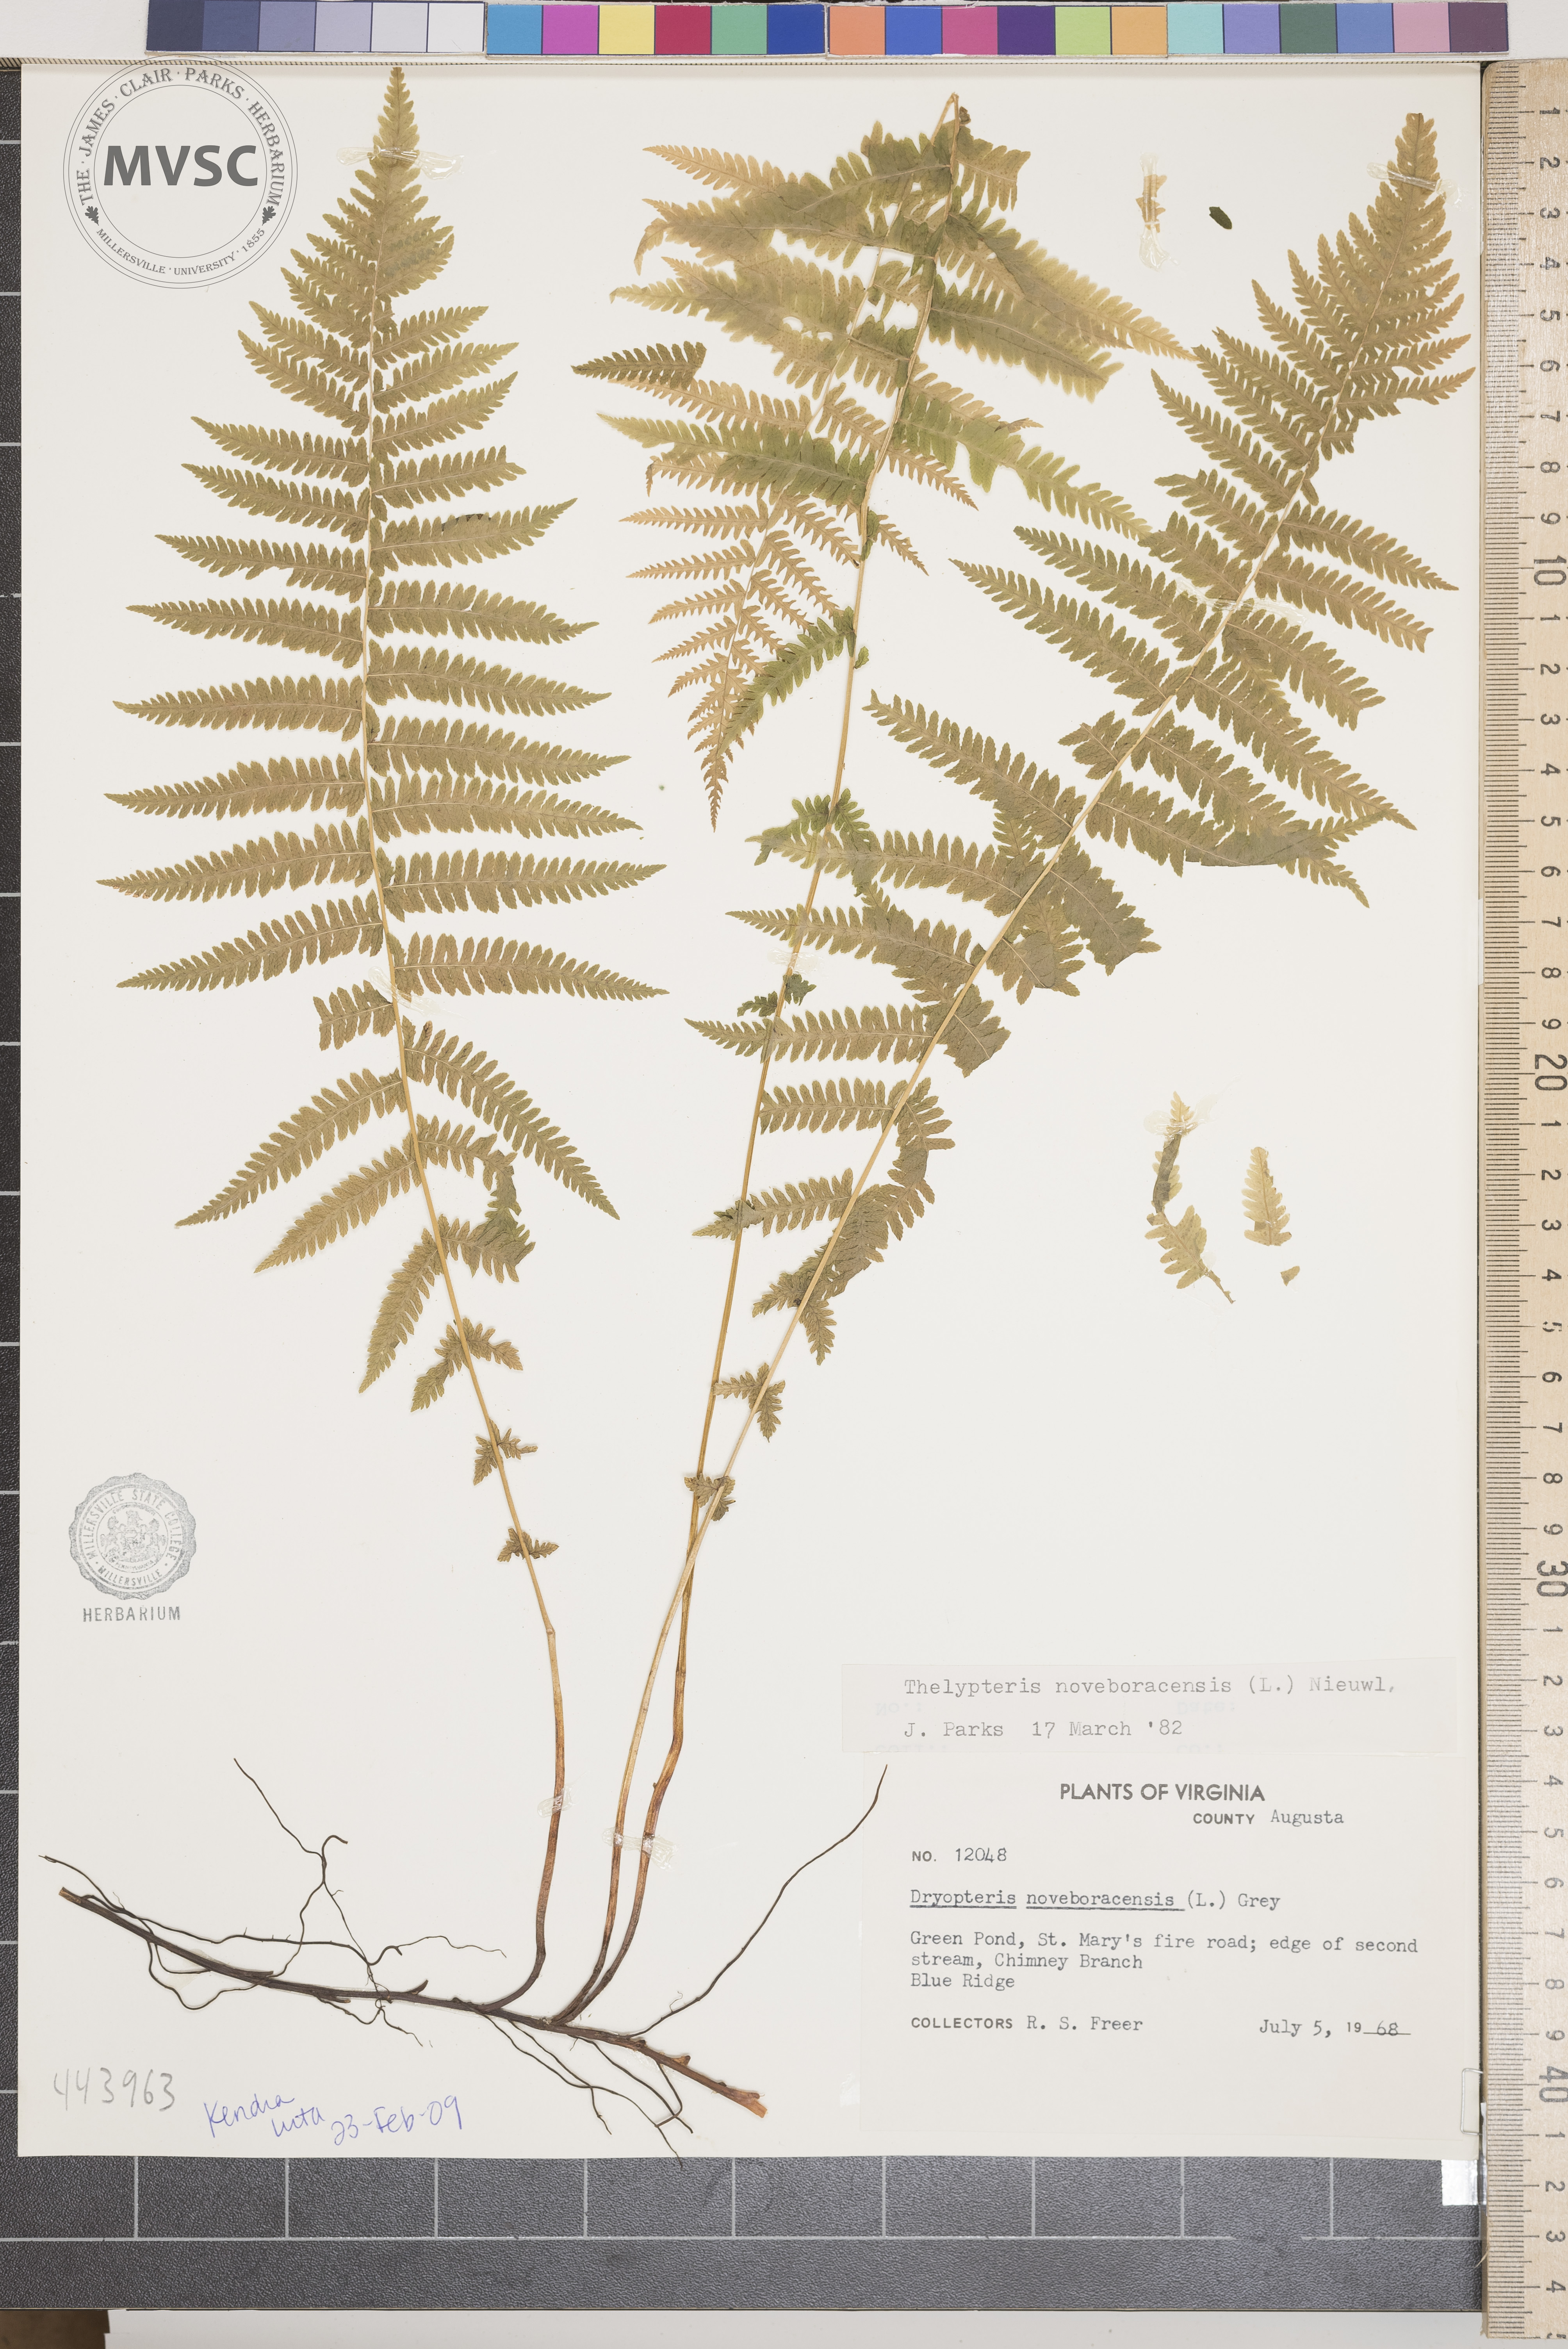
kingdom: Plantae
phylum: Tracheophyta
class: Polypodiopsida
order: Polypodiales
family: Thelypteridaceae
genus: Amauropelta
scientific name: Amauropelta noveboracensis
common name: New york fern
